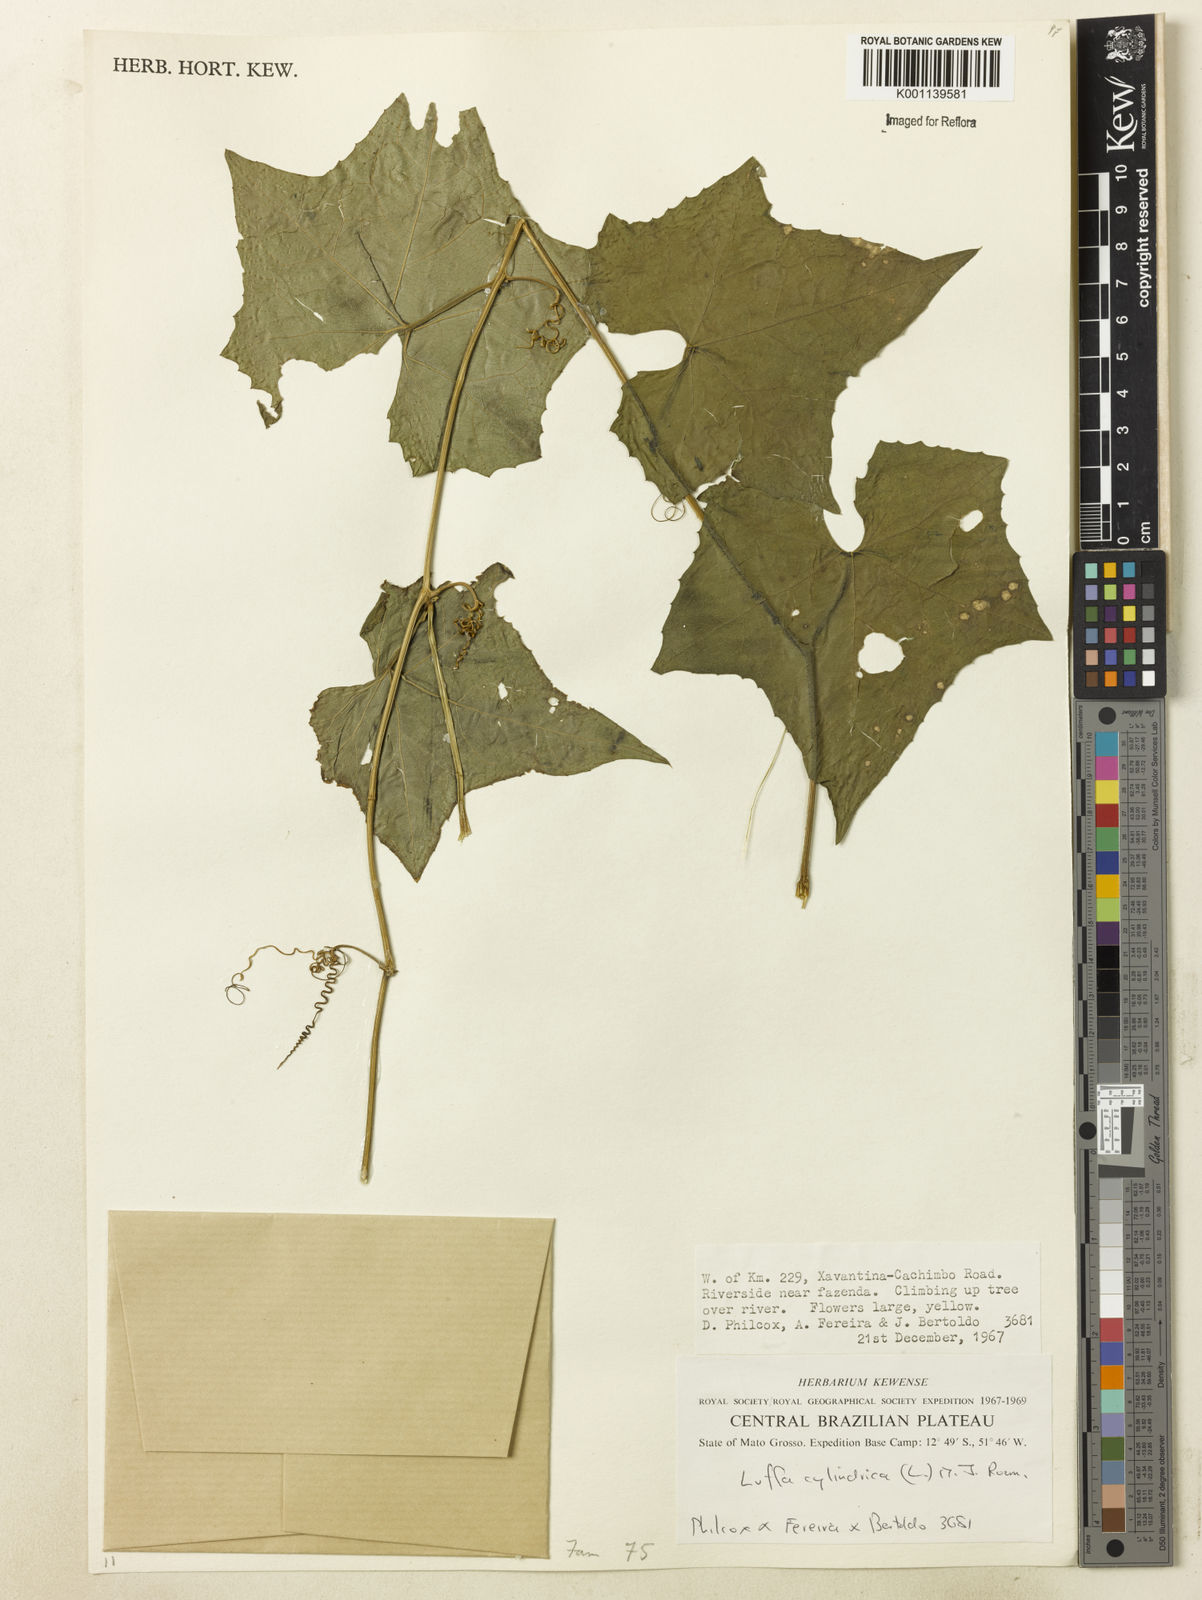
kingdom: Plantae
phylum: Tracheophyta
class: Magnoliopsida
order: Cucurbitales
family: Cucurbitaceae
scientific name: Cucurbitaceae
